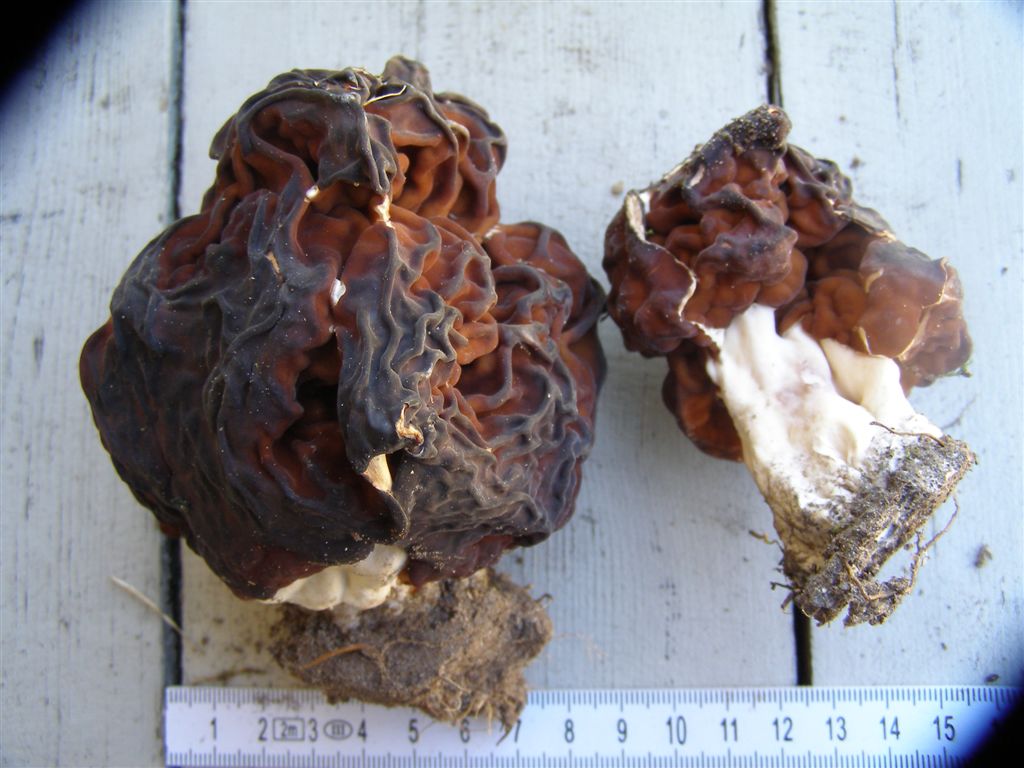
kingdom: Fungi
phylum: Ascomycota
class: Pezizomycetes
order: Pezizales
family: Discinaceae
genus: Gyromitra
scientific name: Gyromitra esculenta
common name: ægte stenmorkel
